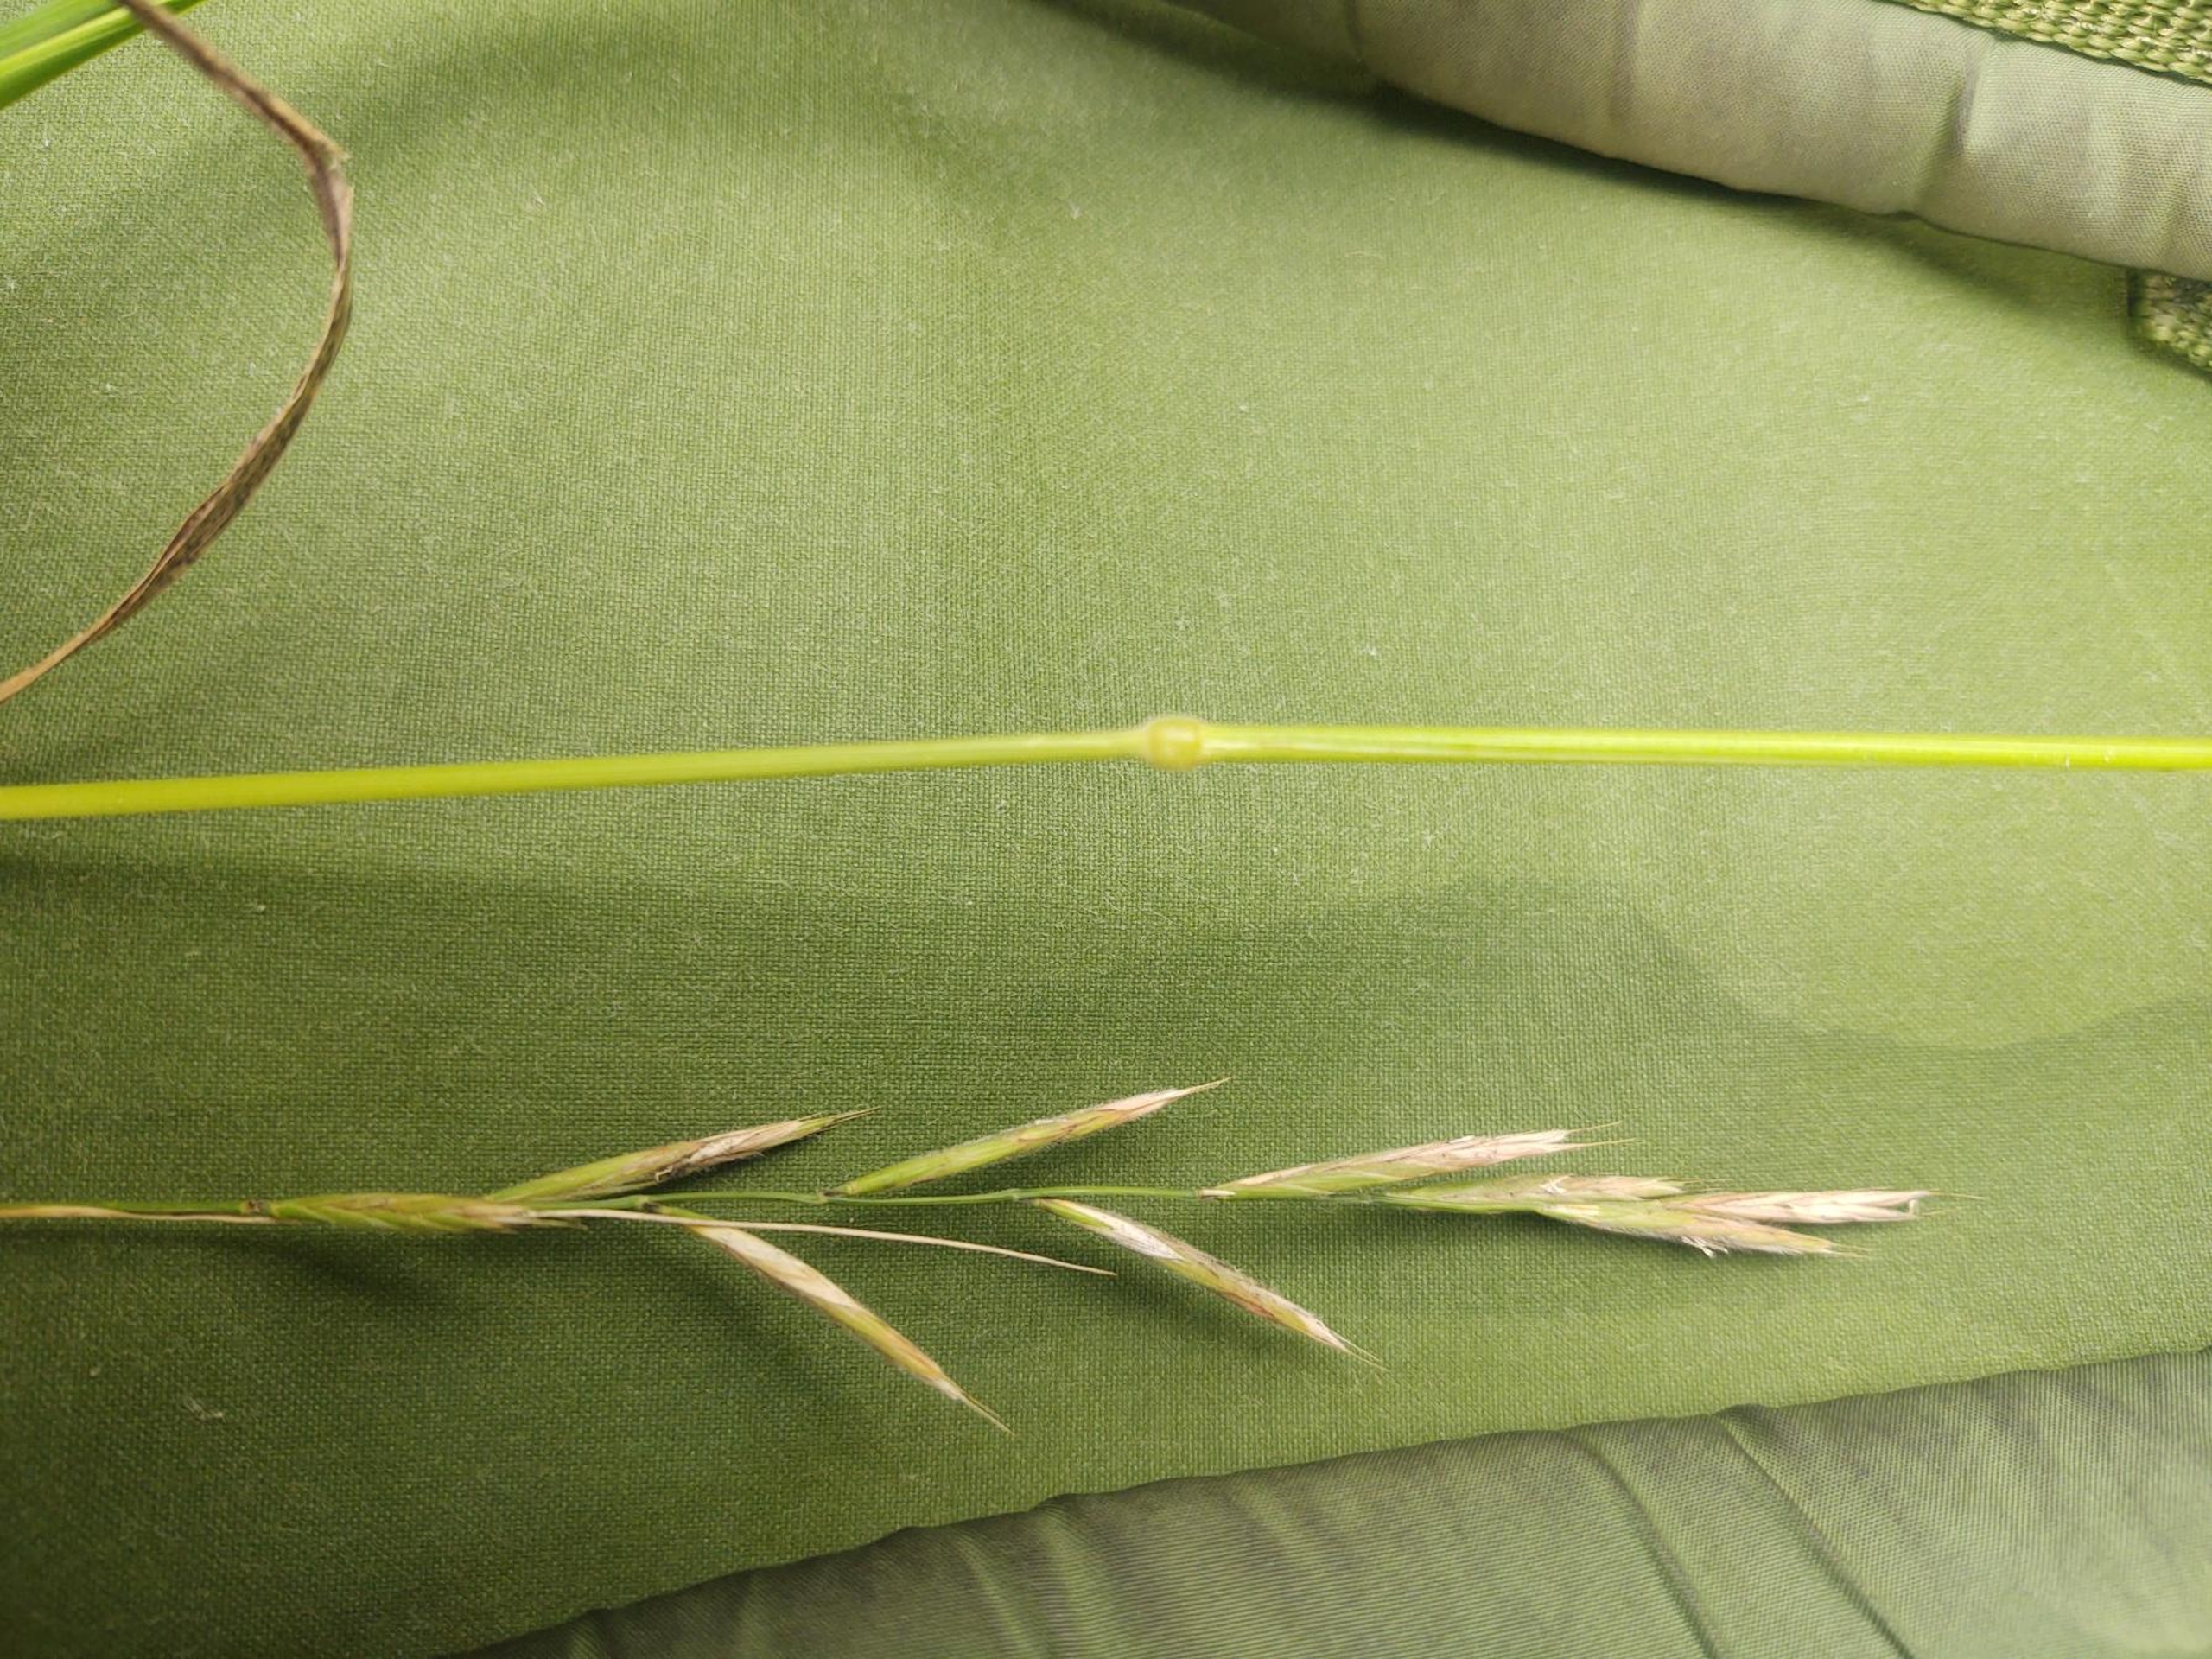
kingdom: Plantae
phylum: Tracheophyta
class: Liliopsida
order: Poales
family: Poaceae
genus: Brachypodium
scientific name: Brachypodium pinnatum
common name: Bakke-stilkaks
